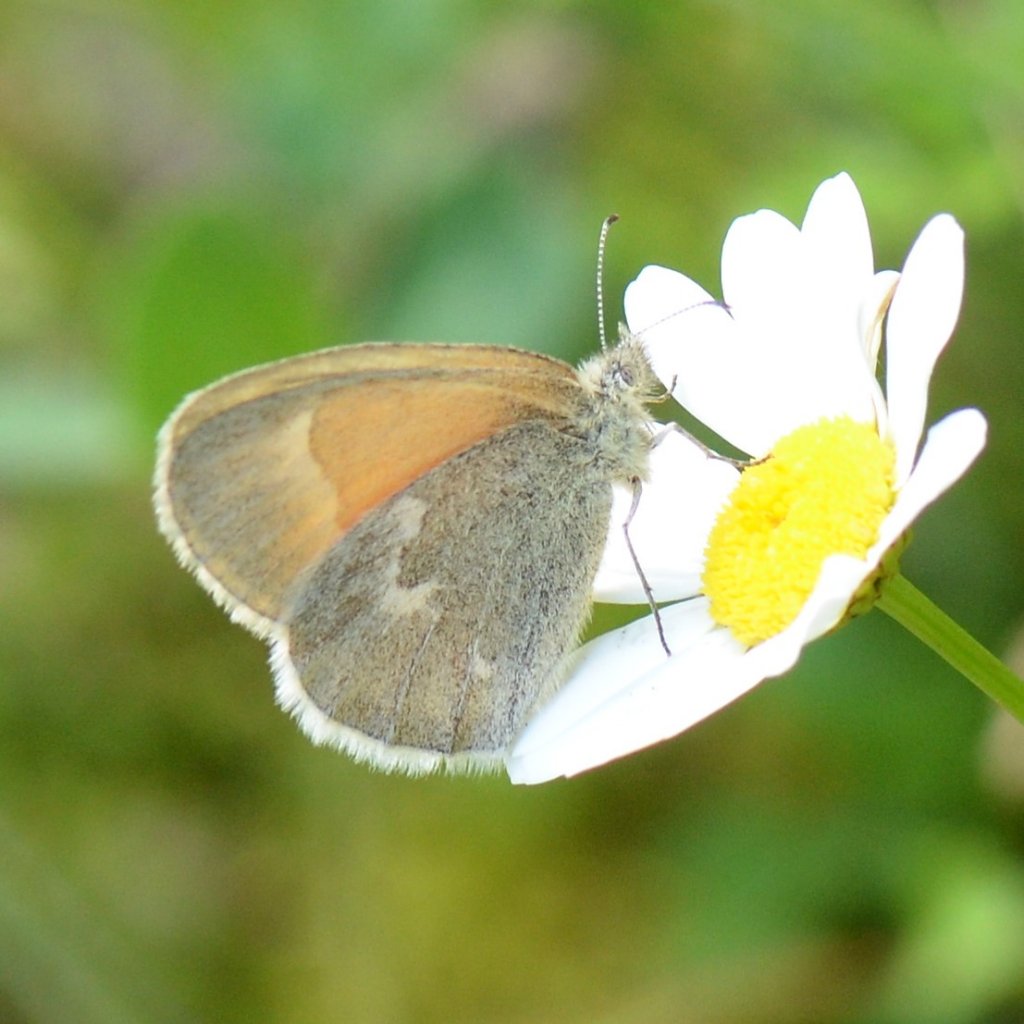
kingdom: Animalia
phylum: Arthropoda
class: Insecta
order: Lepidoptera
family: Nymphalidae
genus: Coenonympha
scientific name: Coenonympha tullia
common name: Large Heath
